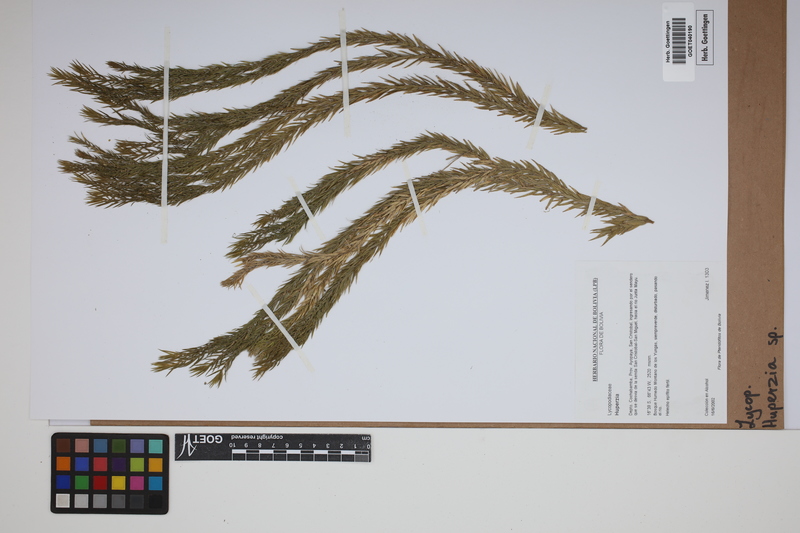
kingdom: Plantae
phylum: Tracheophyta
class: Lycopodiopsida
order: Lycopodiales
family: Lycopodiaceae
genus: Phlegmariurus
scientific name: Phlegmariurus
